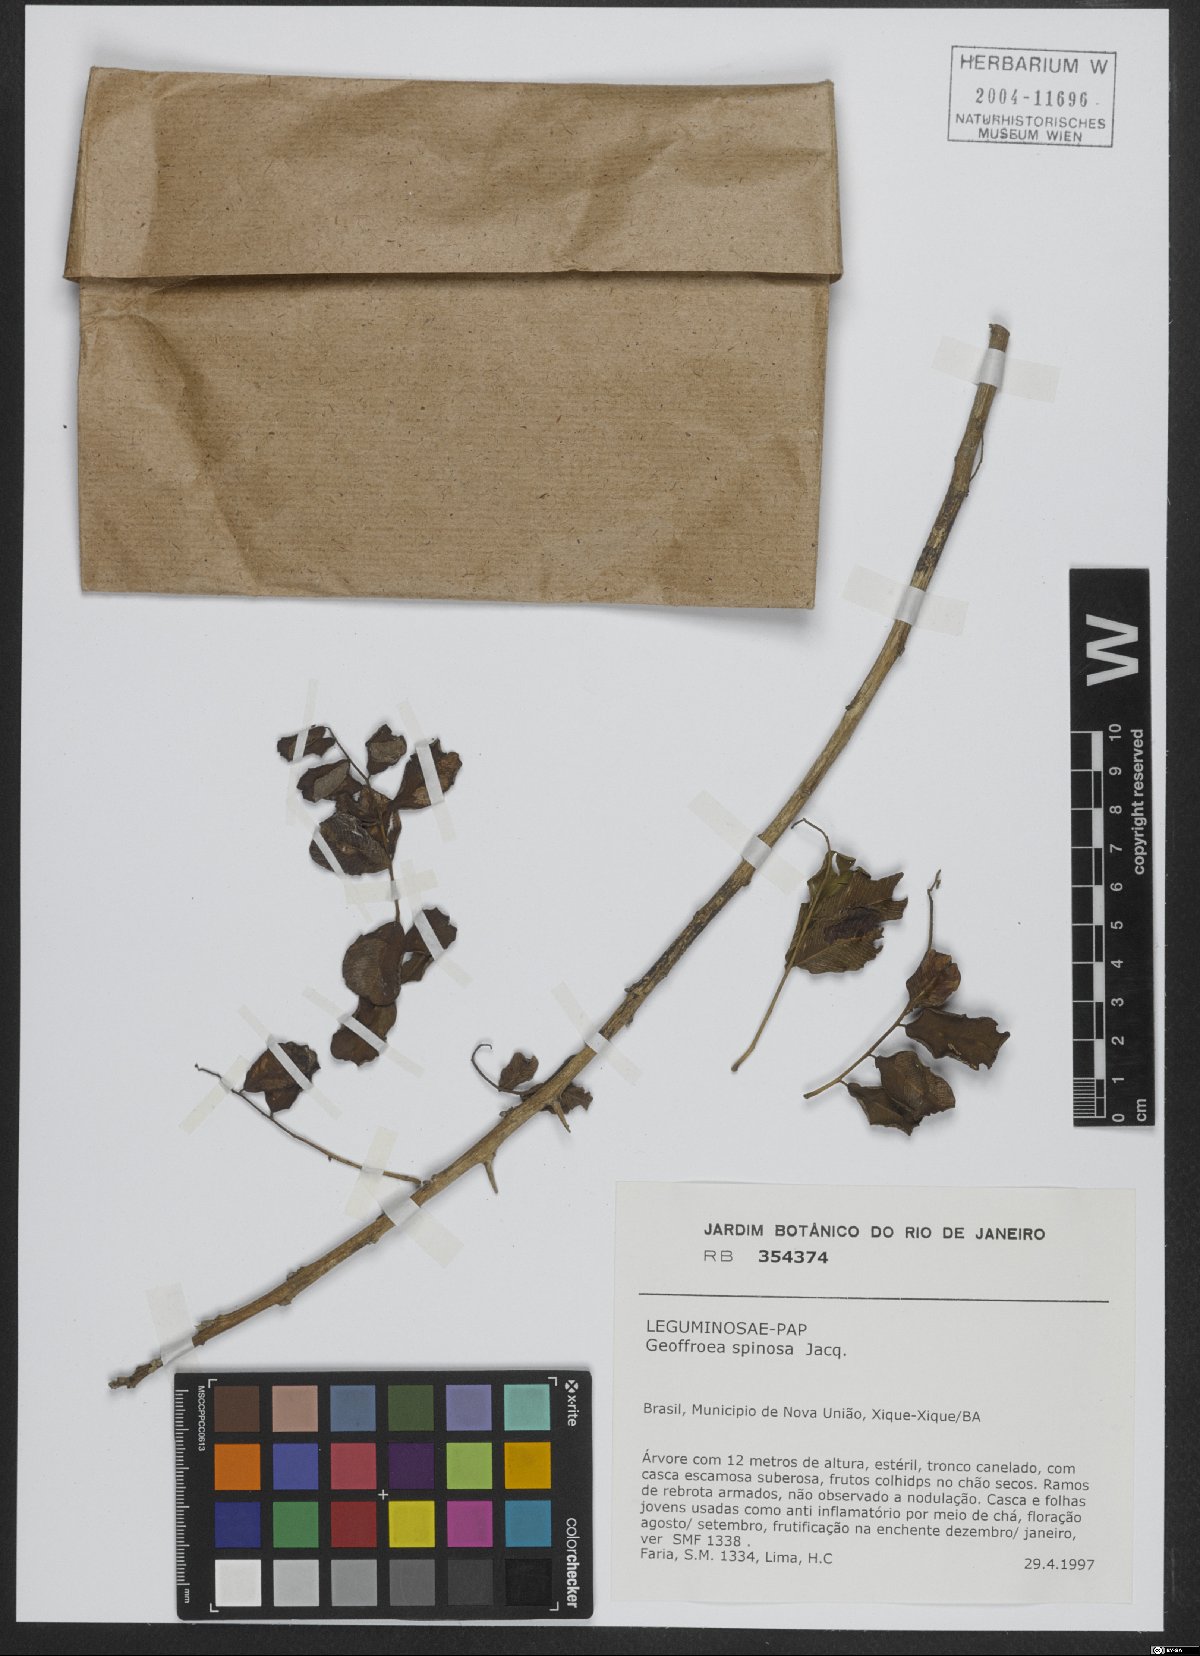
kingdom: Plantae
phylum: Tracheophyta
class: Magnoliopsida
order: Fabales
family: Fabaceae
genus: Geoffroea
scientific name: Geoffroea spinosa
